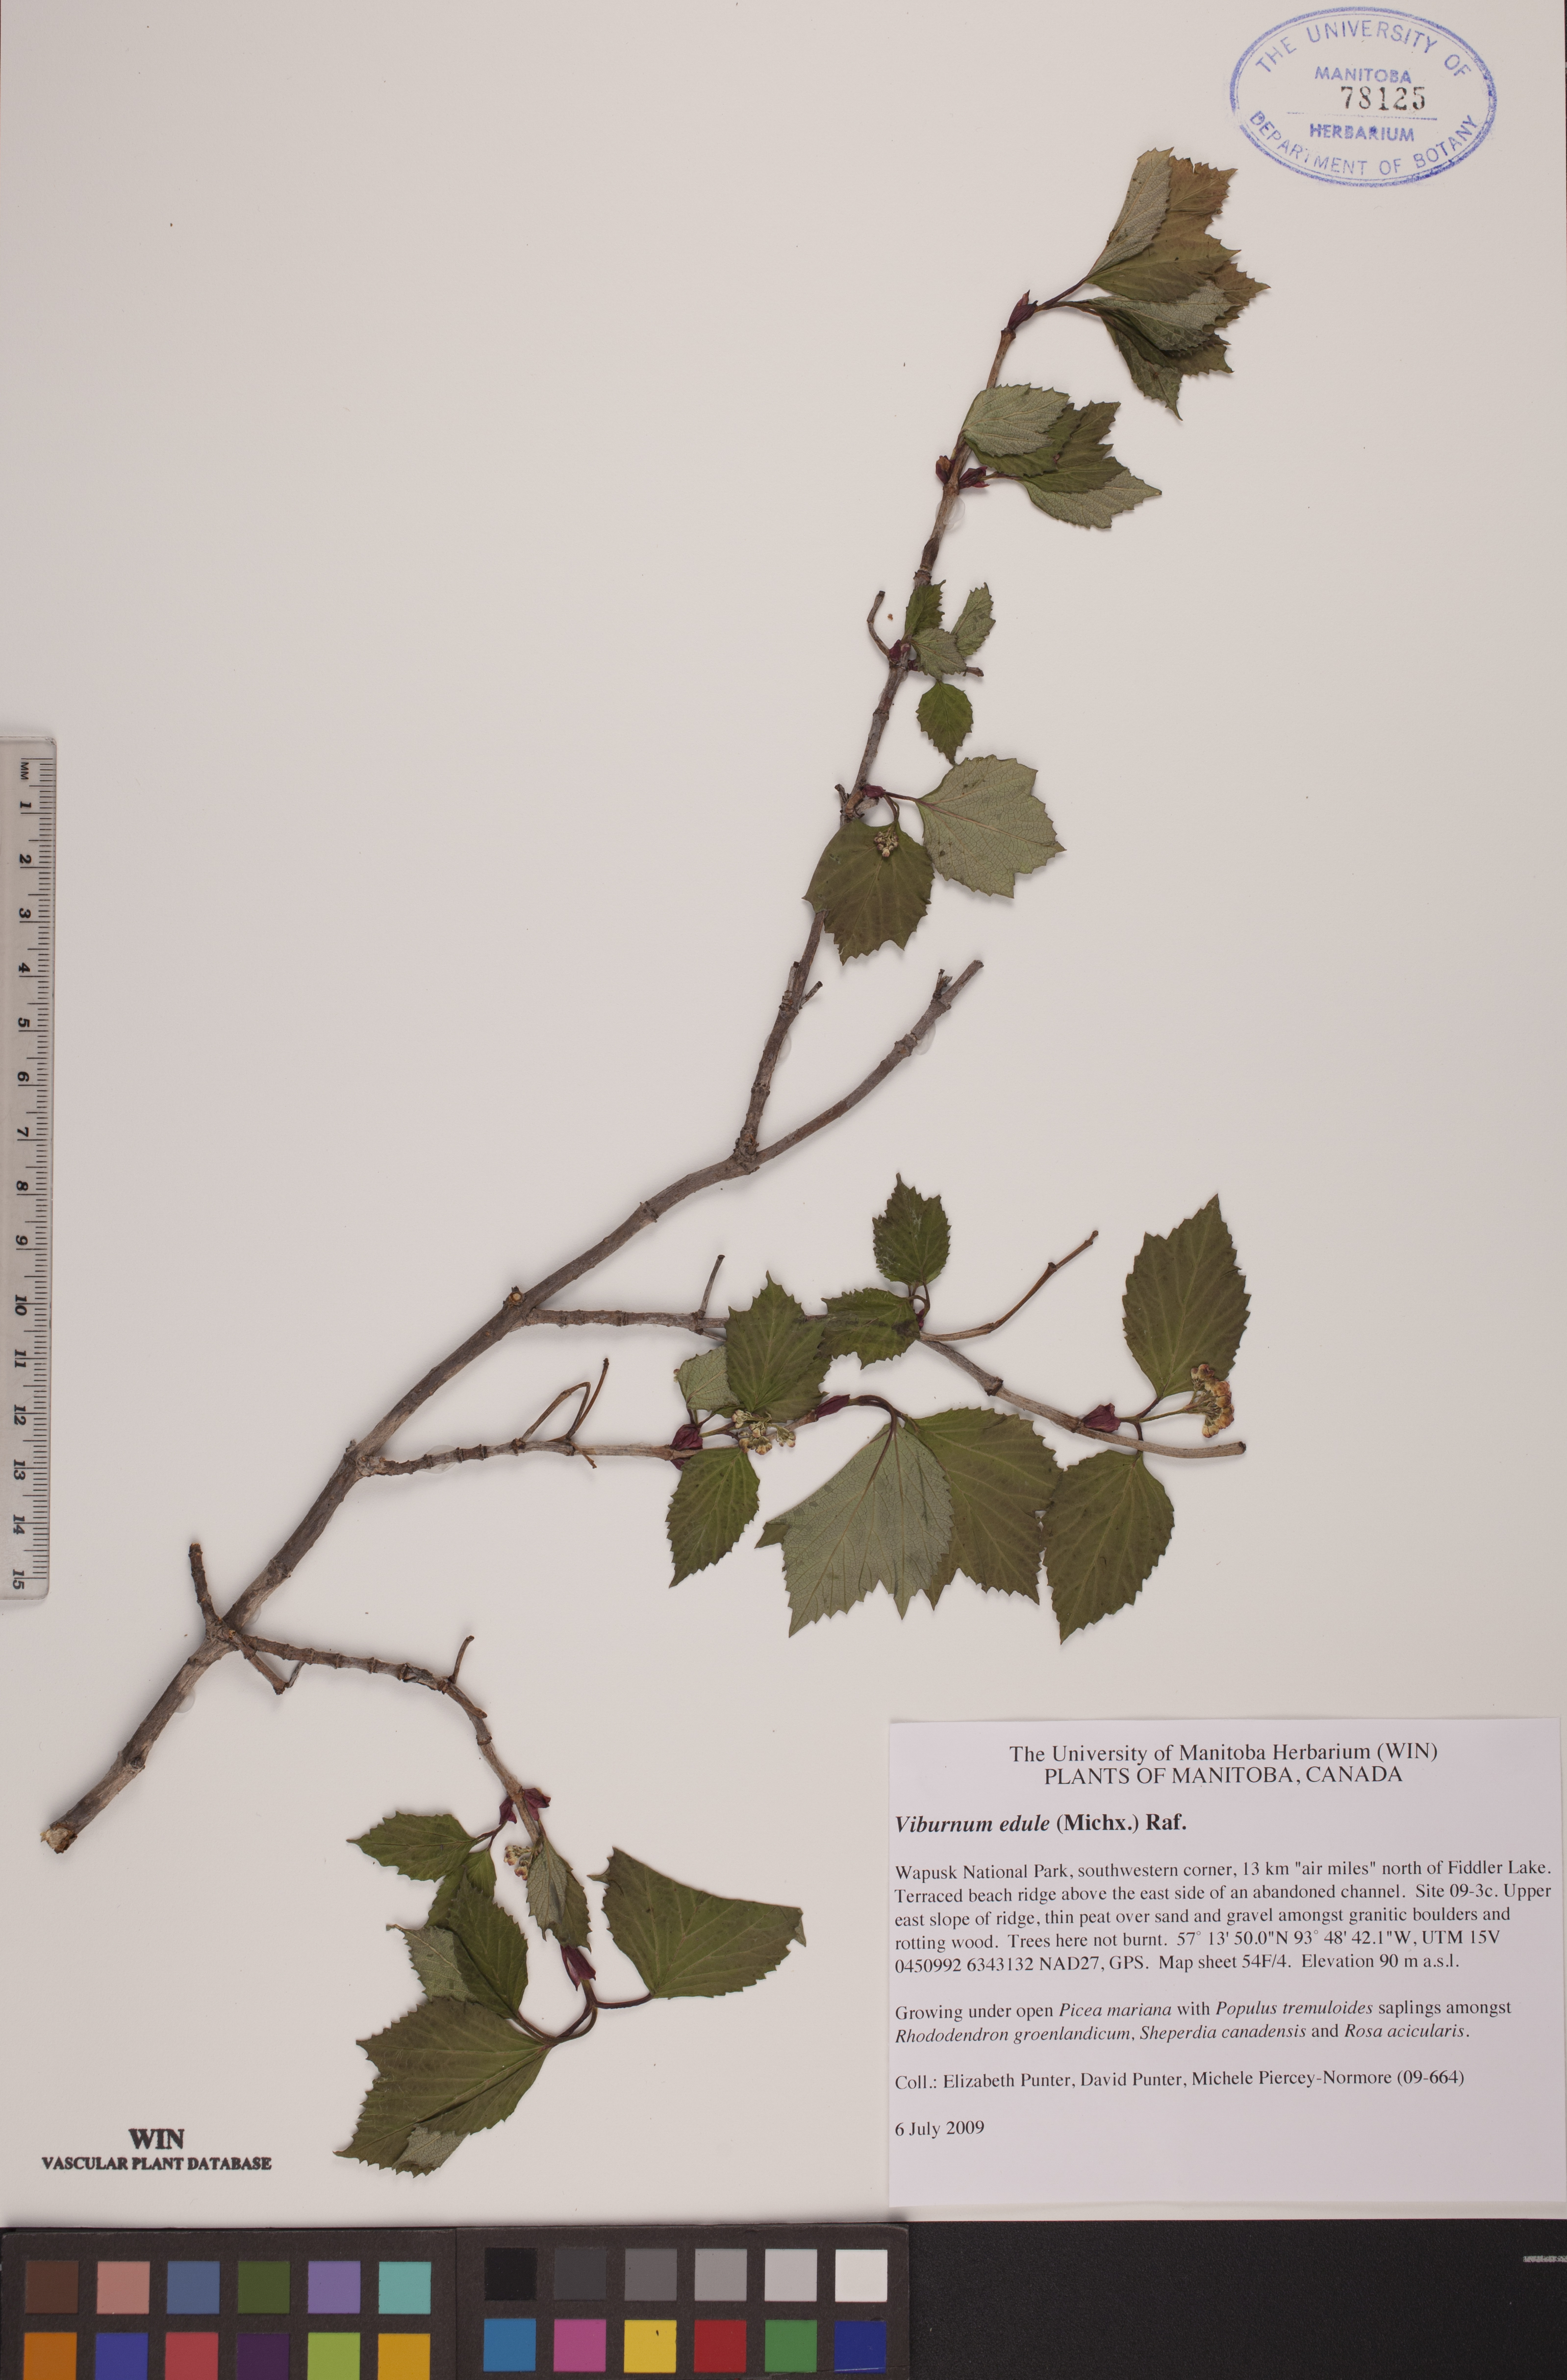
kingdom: Plantae
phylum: Tracheophyta
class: Magnoliopsida
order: Dipsacales
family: Viburnaceae
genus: Viburnum
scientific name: Viburnum edule
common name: Mooseberry
